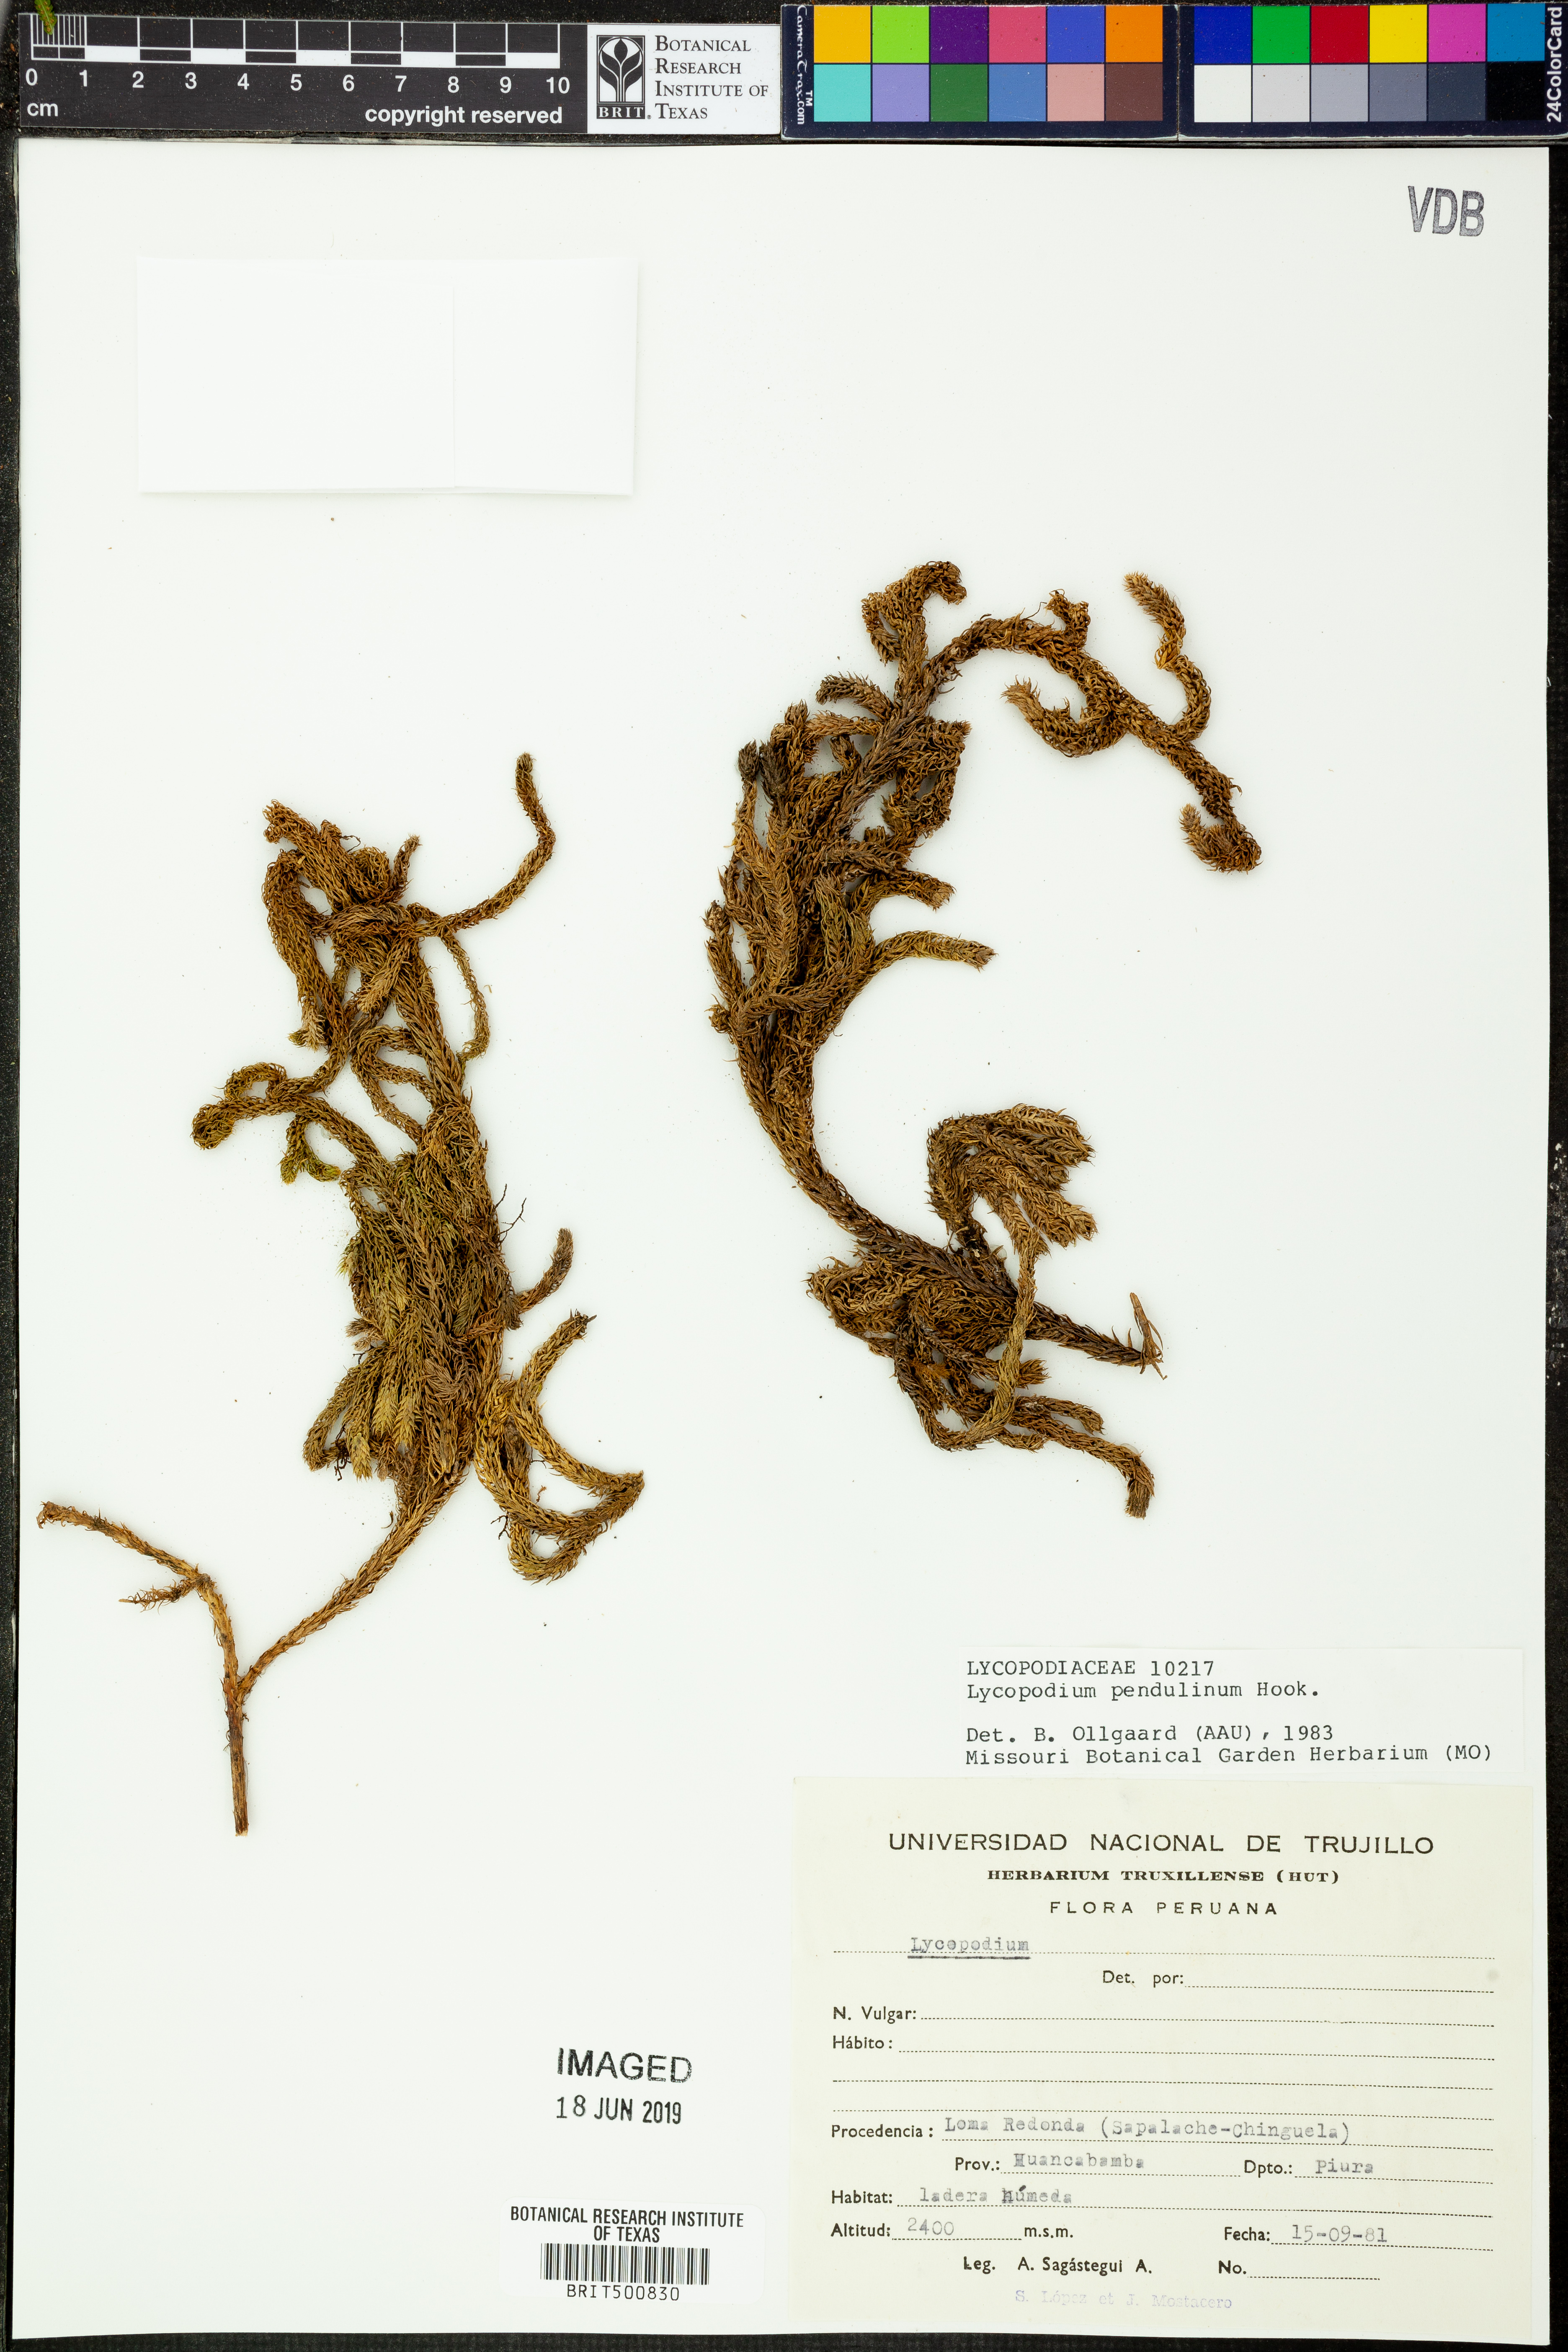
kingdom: Plantae
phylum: Tracheophyta
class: Lycopodiopsida
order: Lycopodiales
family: Lycopodiaceae
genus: Palhinhaea
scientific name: Palhinhaea pendulina
